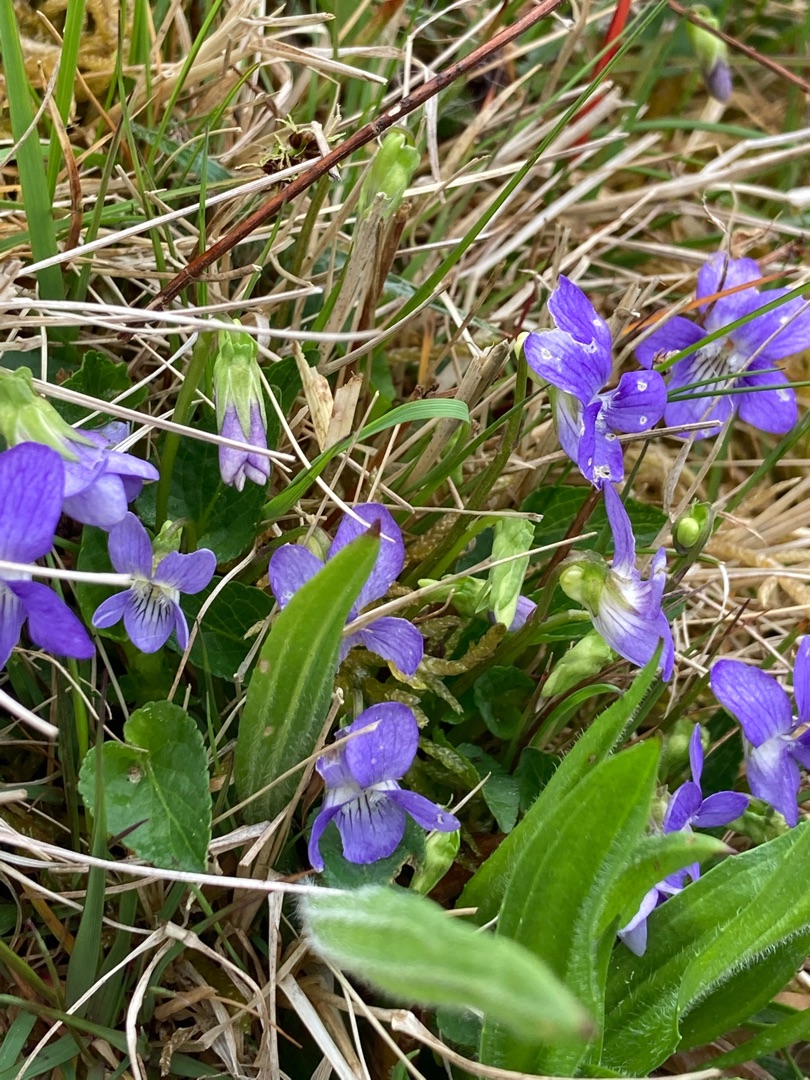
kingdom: Plantae
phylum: Tracheophyta
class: Magnoliopsida
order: Malpighiales
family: Violaceae
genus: Viola
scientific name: Viola canina
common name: Hunde-viol
